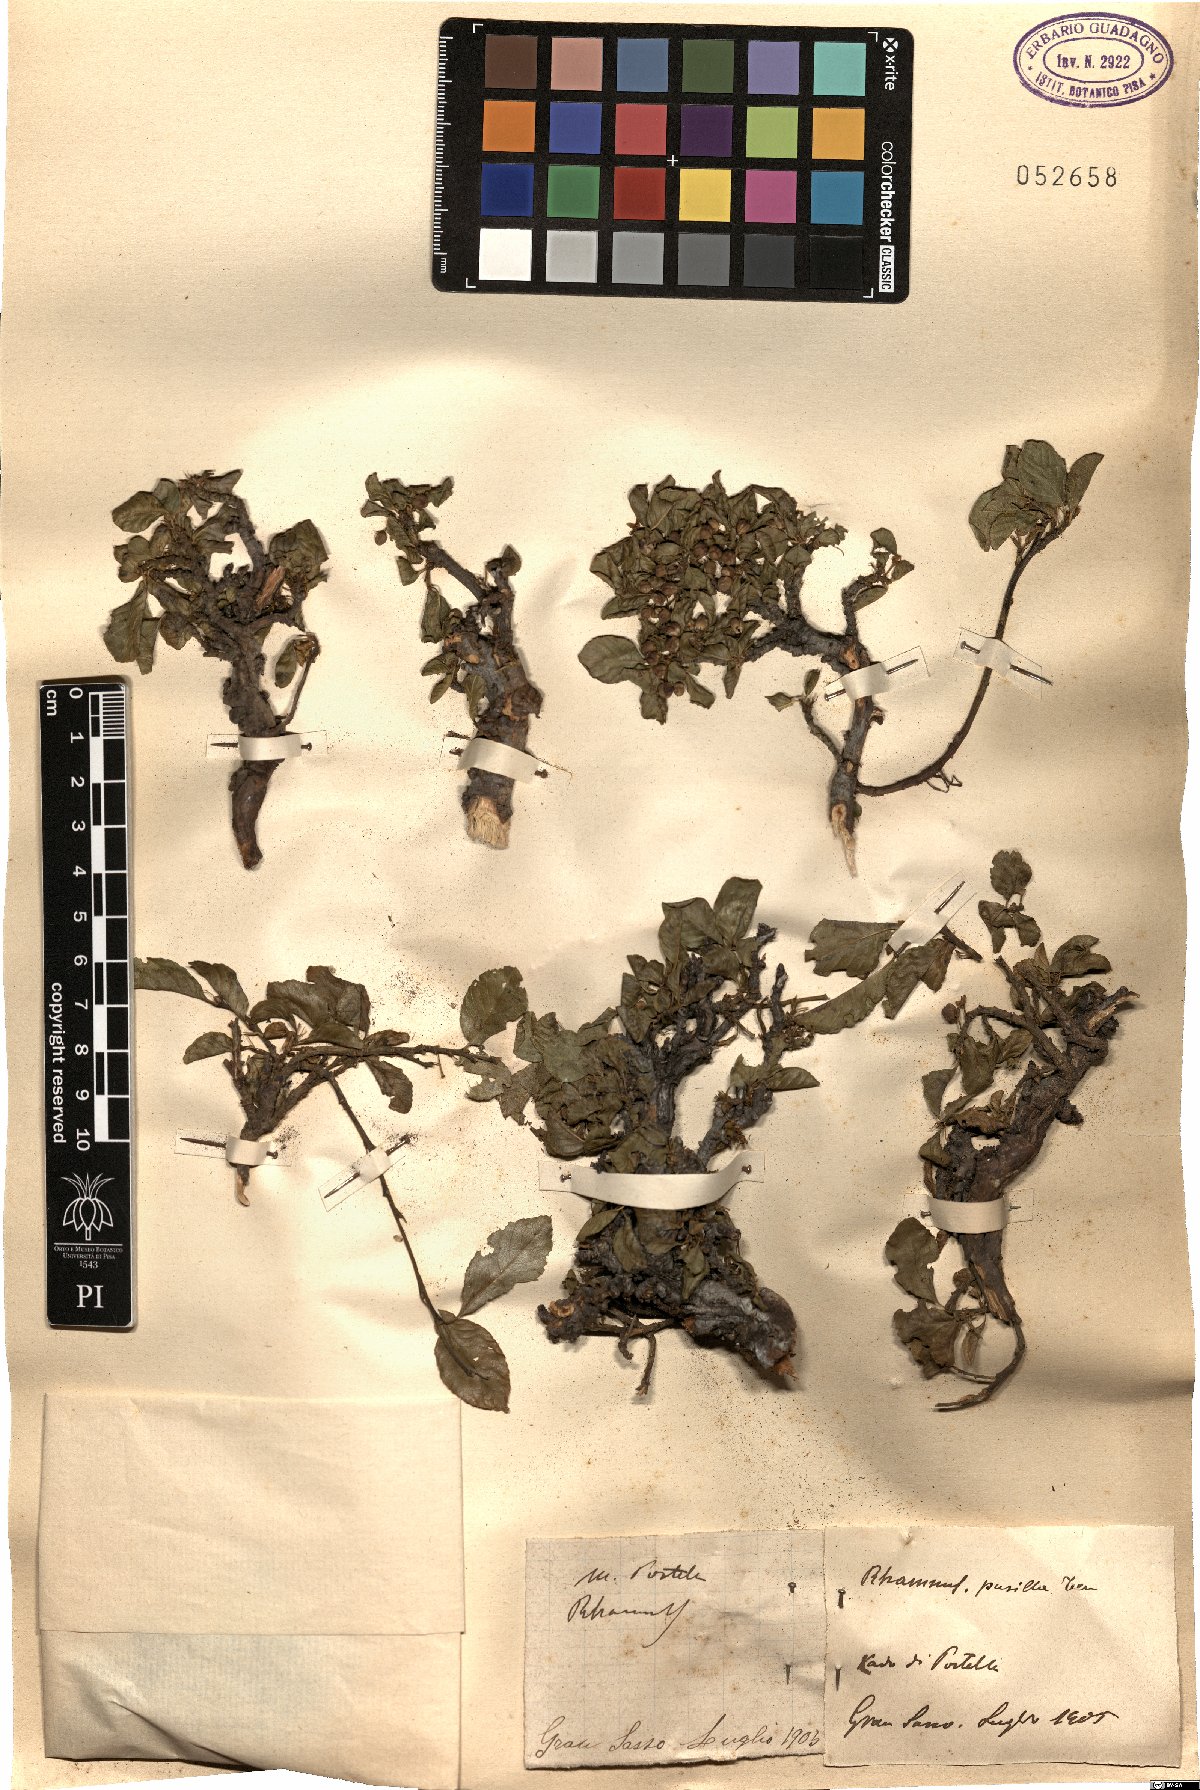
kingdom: Plantae
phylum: Tracheophyta
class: Magnoliopsida
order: Rosales
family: Rhamnaceae
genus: Atadinus
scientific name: Atadinus pumilus
